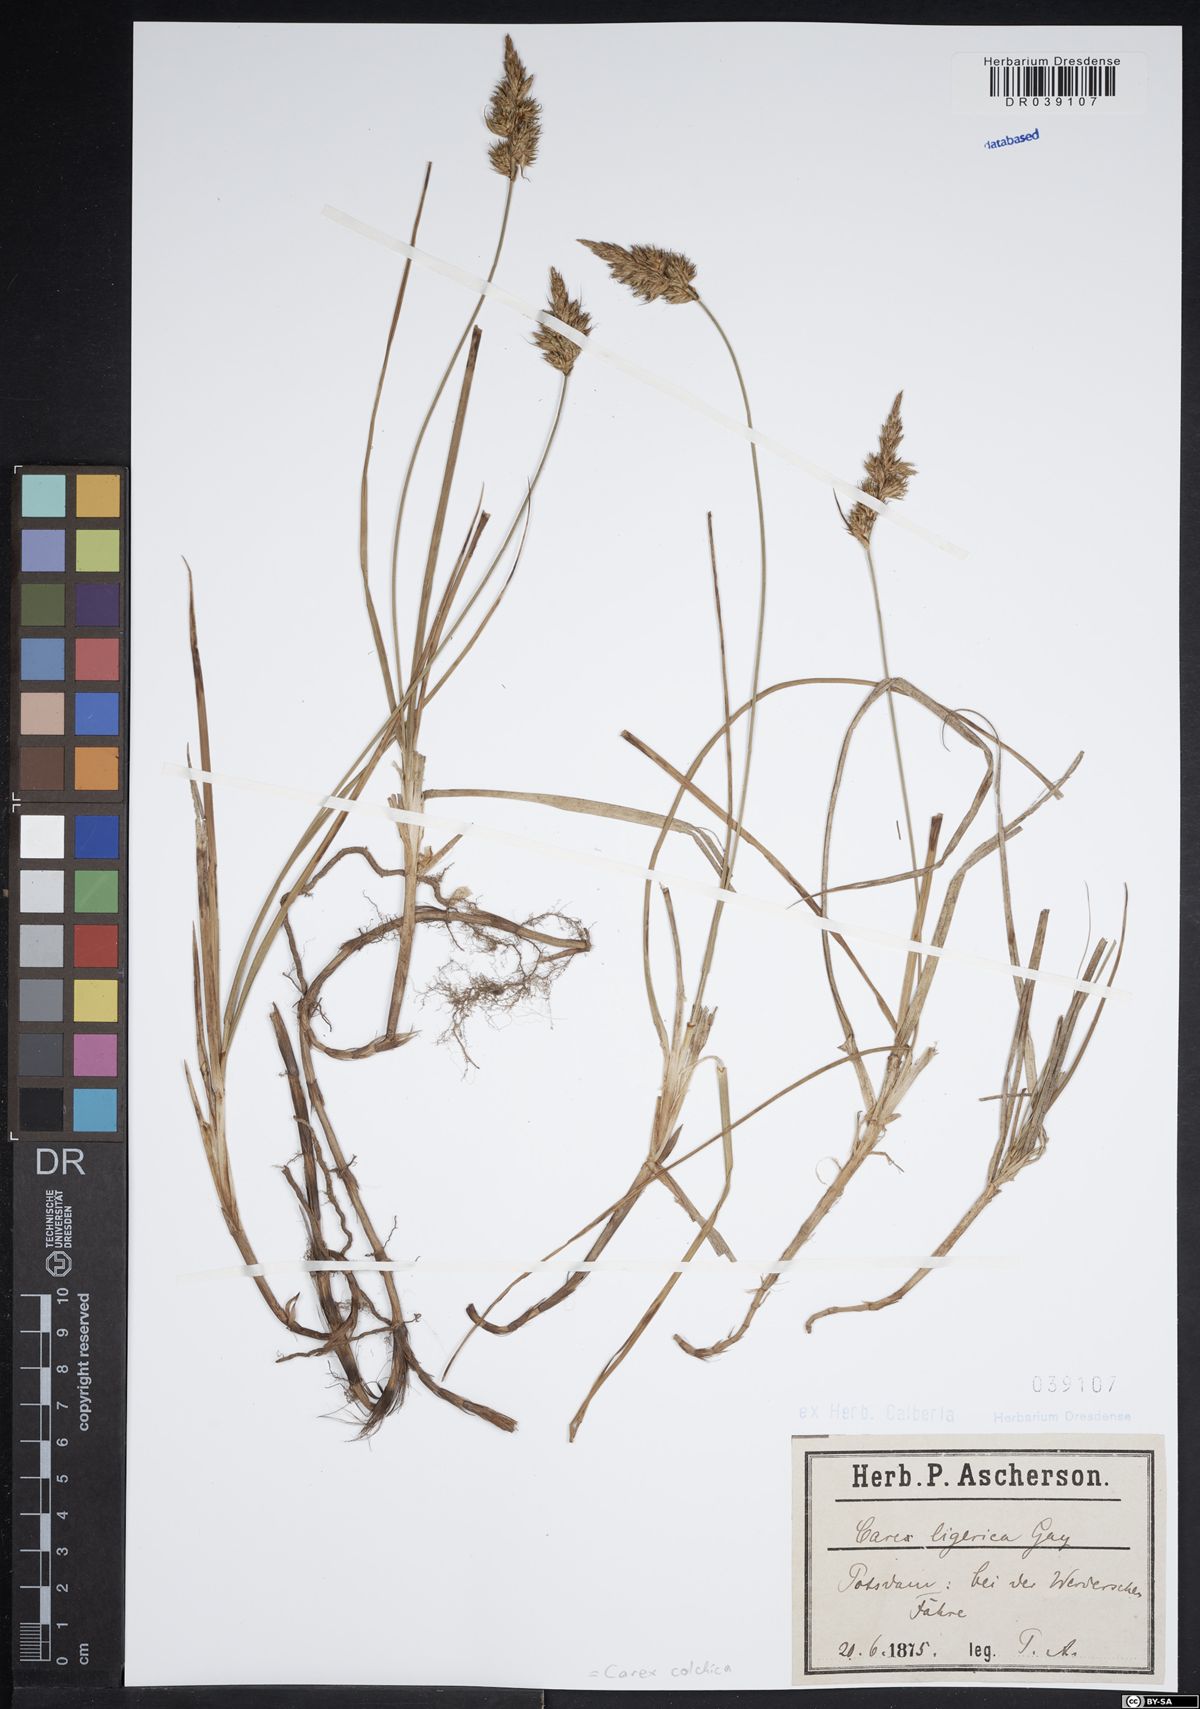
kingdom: Plantae
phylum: Tracheophyta
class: Liliopsida
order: Poales
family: Cyperaceae
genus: Carex
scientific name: Carex colchica
